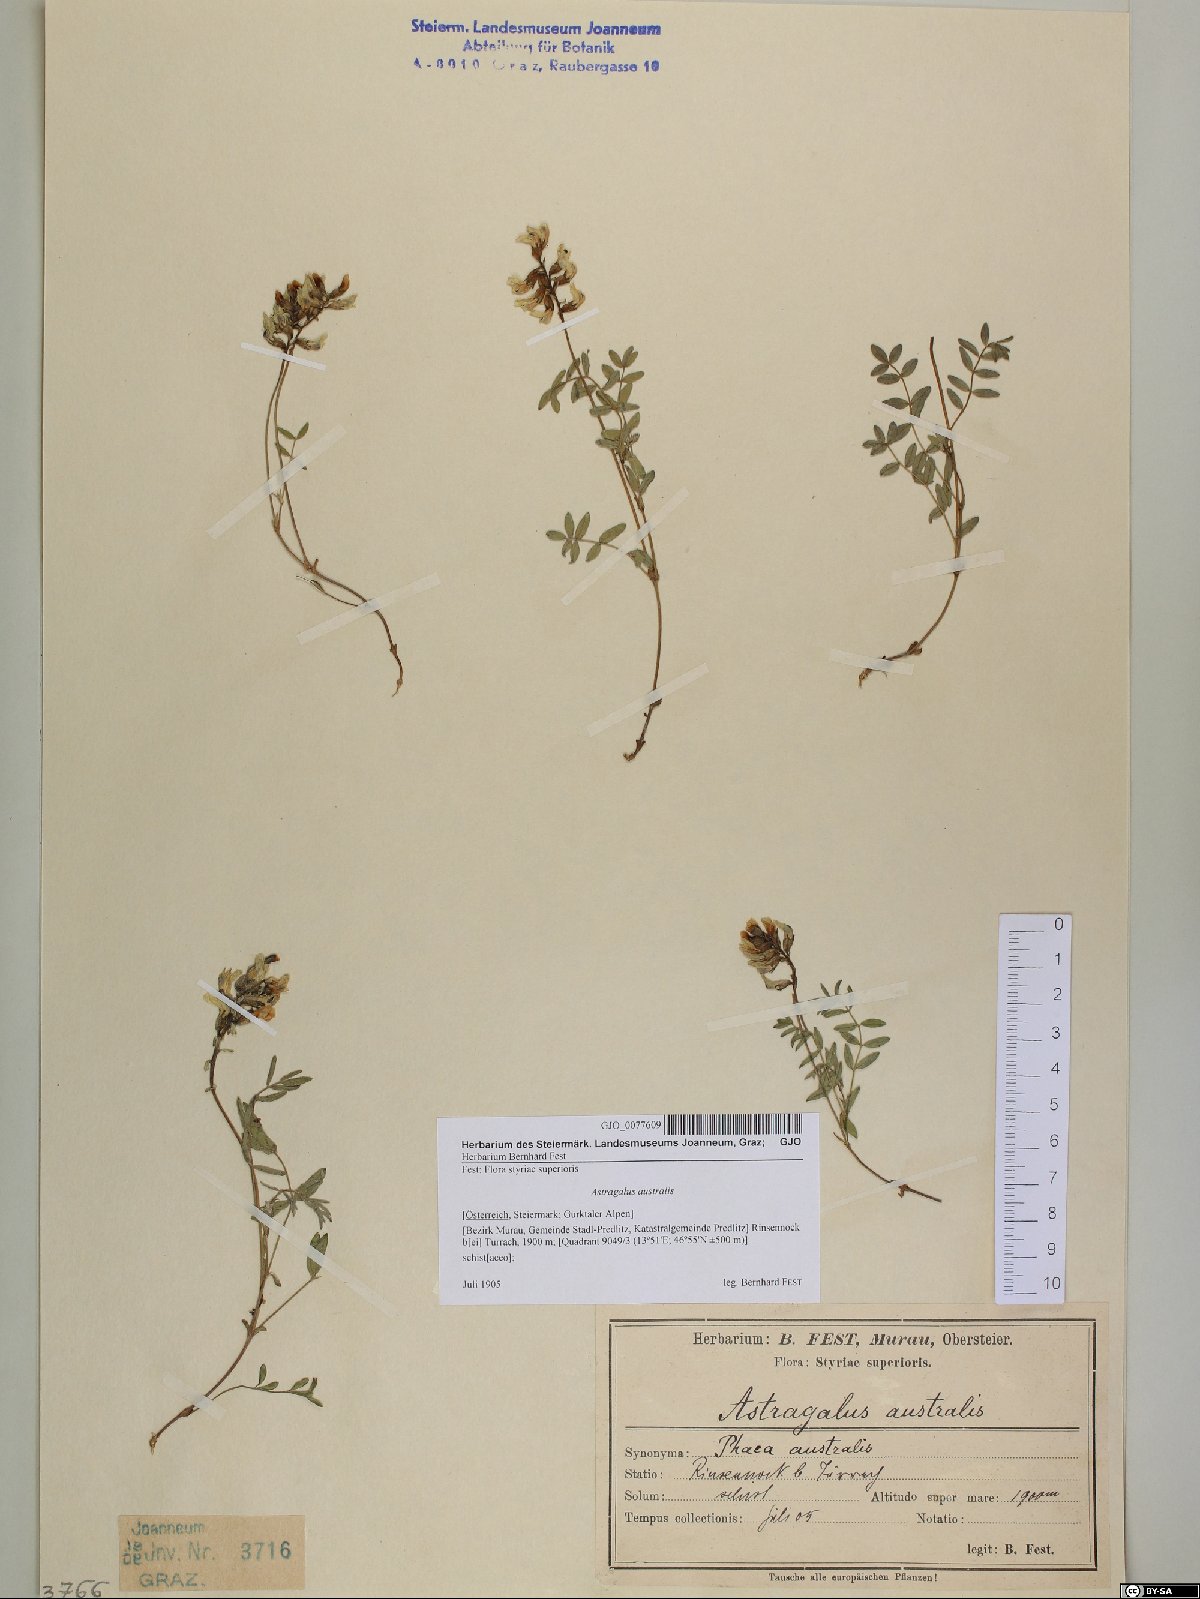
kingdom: Plantae
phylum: Tracheophyta
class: Magnoliopsida
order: Fabales
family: Fabaceae
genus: Astragalus
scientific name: Astragalus australis
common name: Indian milk-vetch
